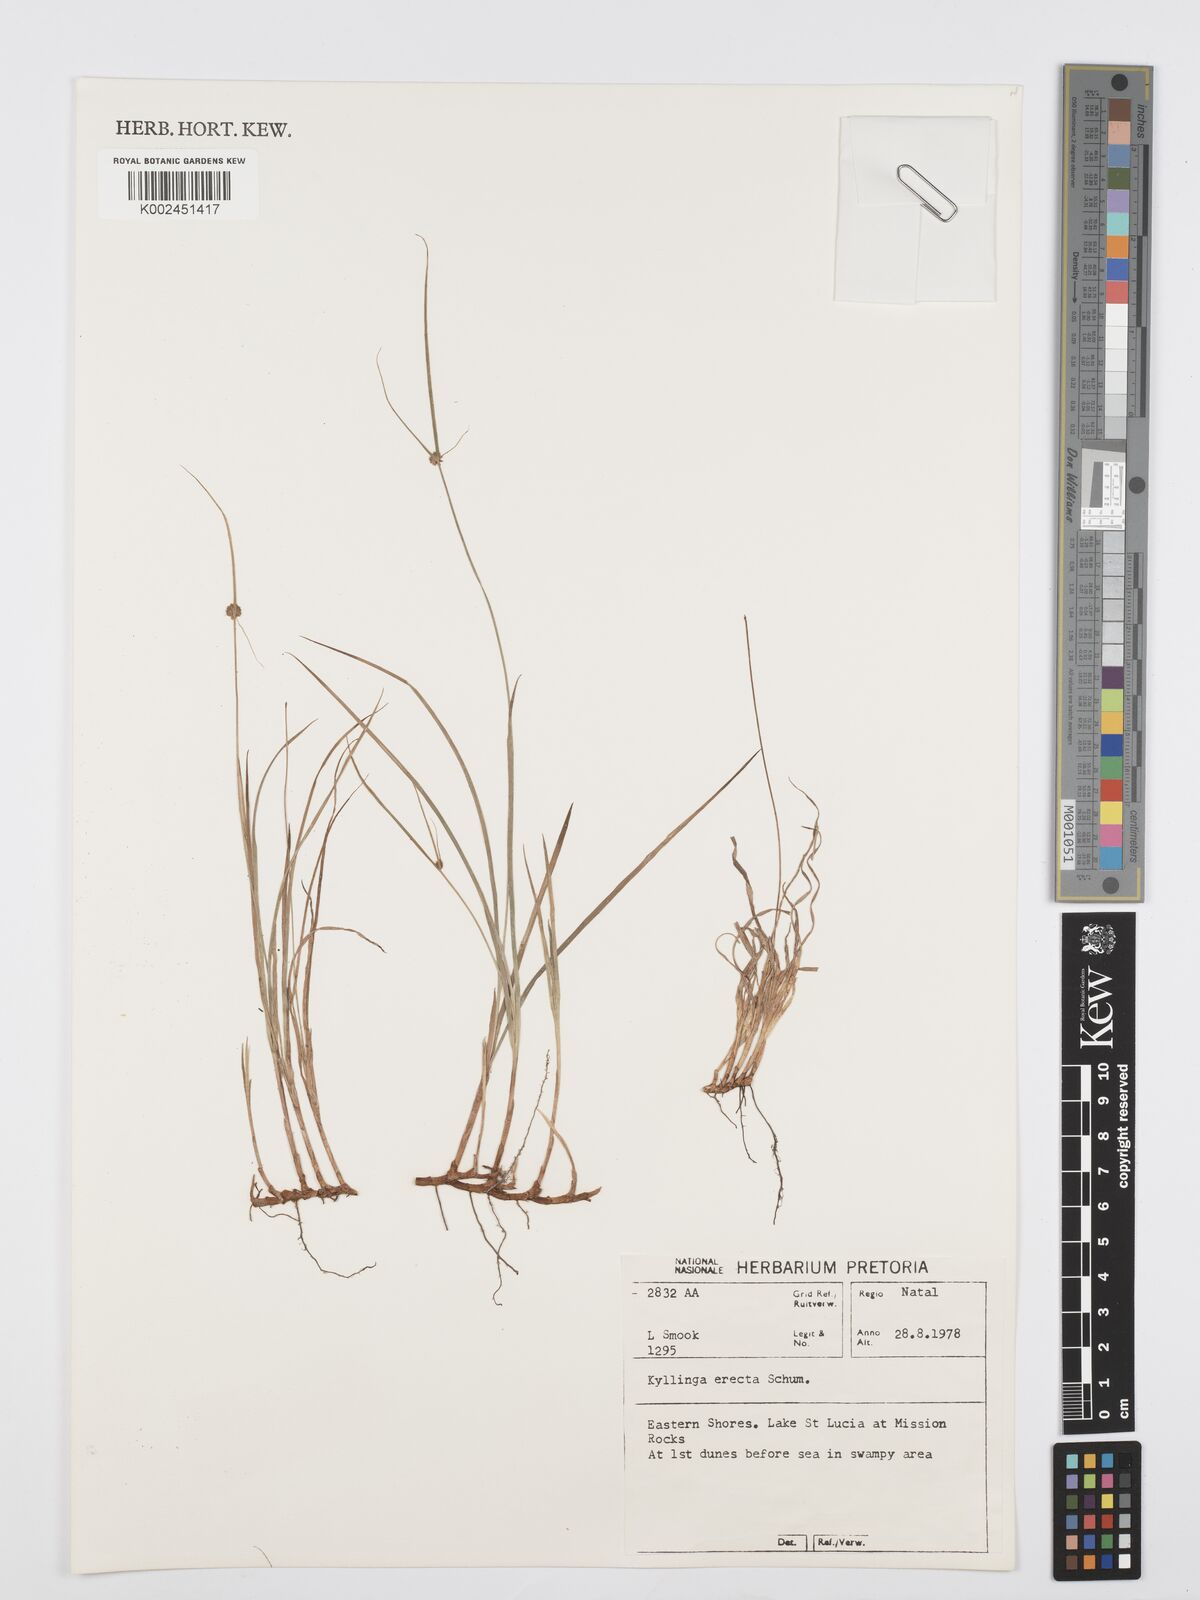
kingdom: Plantae
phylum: Tracheophyta
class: Liliopsida
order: Poales
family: Cyperaceae
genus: Cyperus
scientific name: Cyperus
